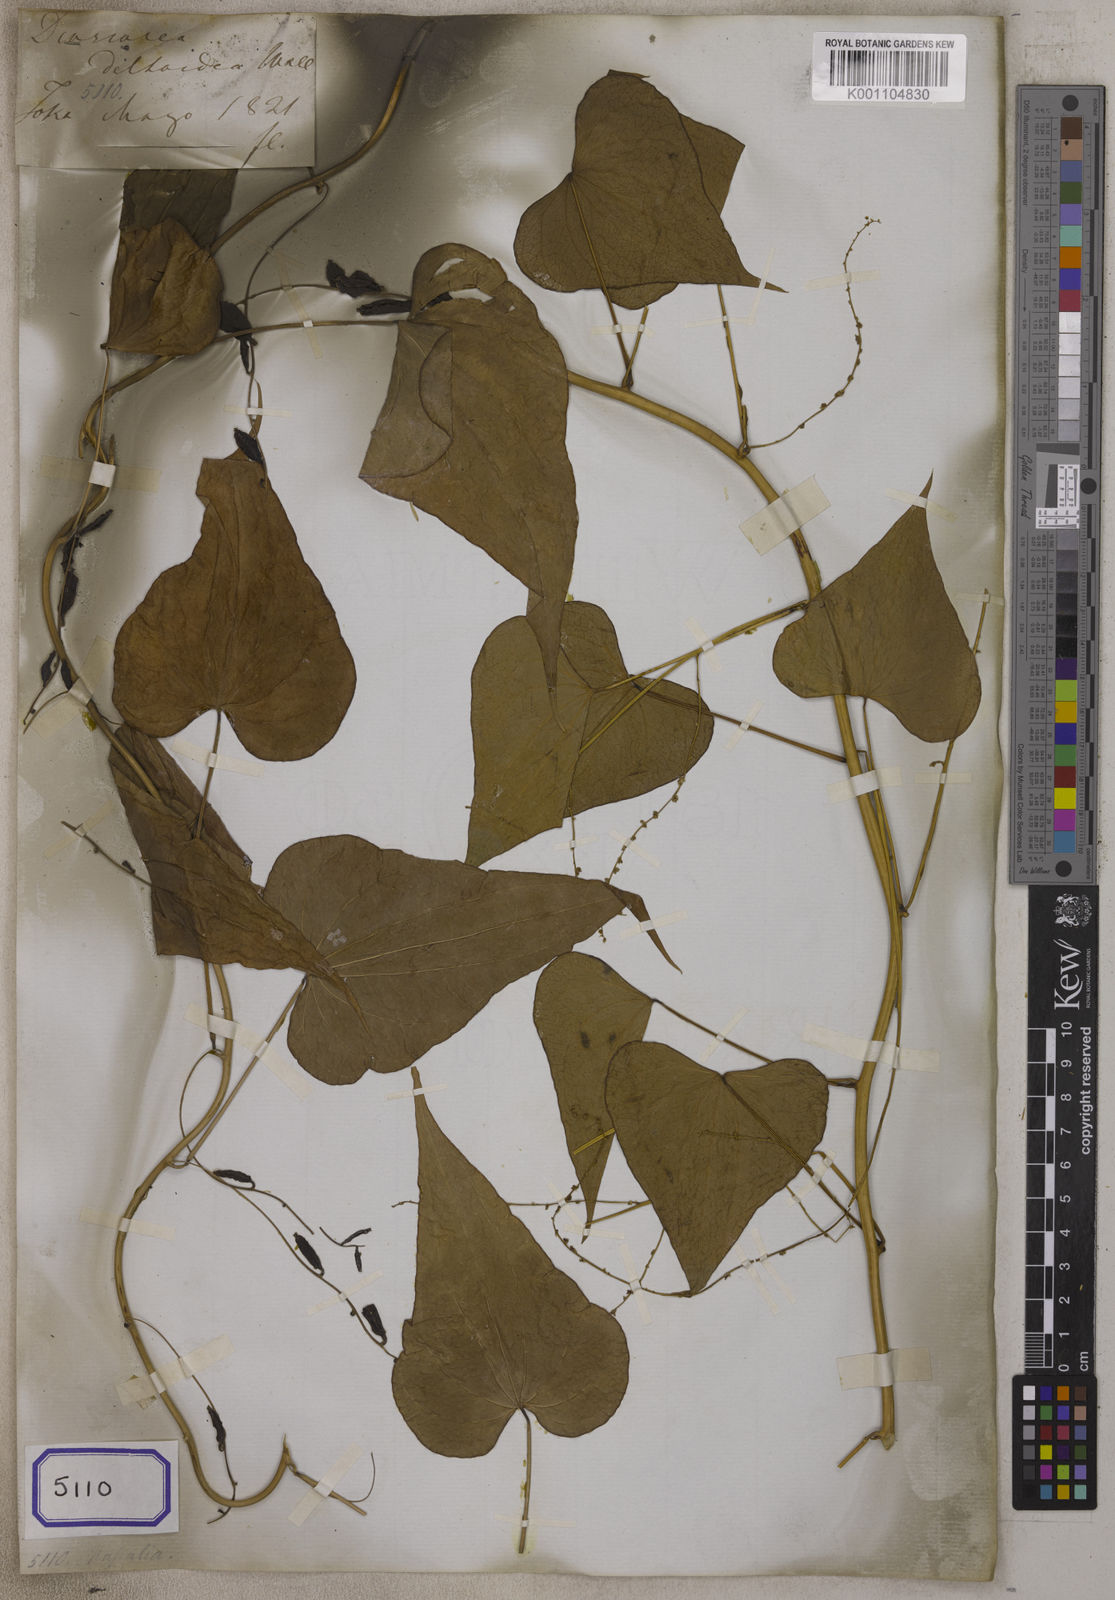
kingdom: Plantae
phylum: Tracheophyta
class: Liliopsida
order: Dioscoreales
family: Dioscoreaceae
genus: Dioscorea
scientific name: Dioscorea
